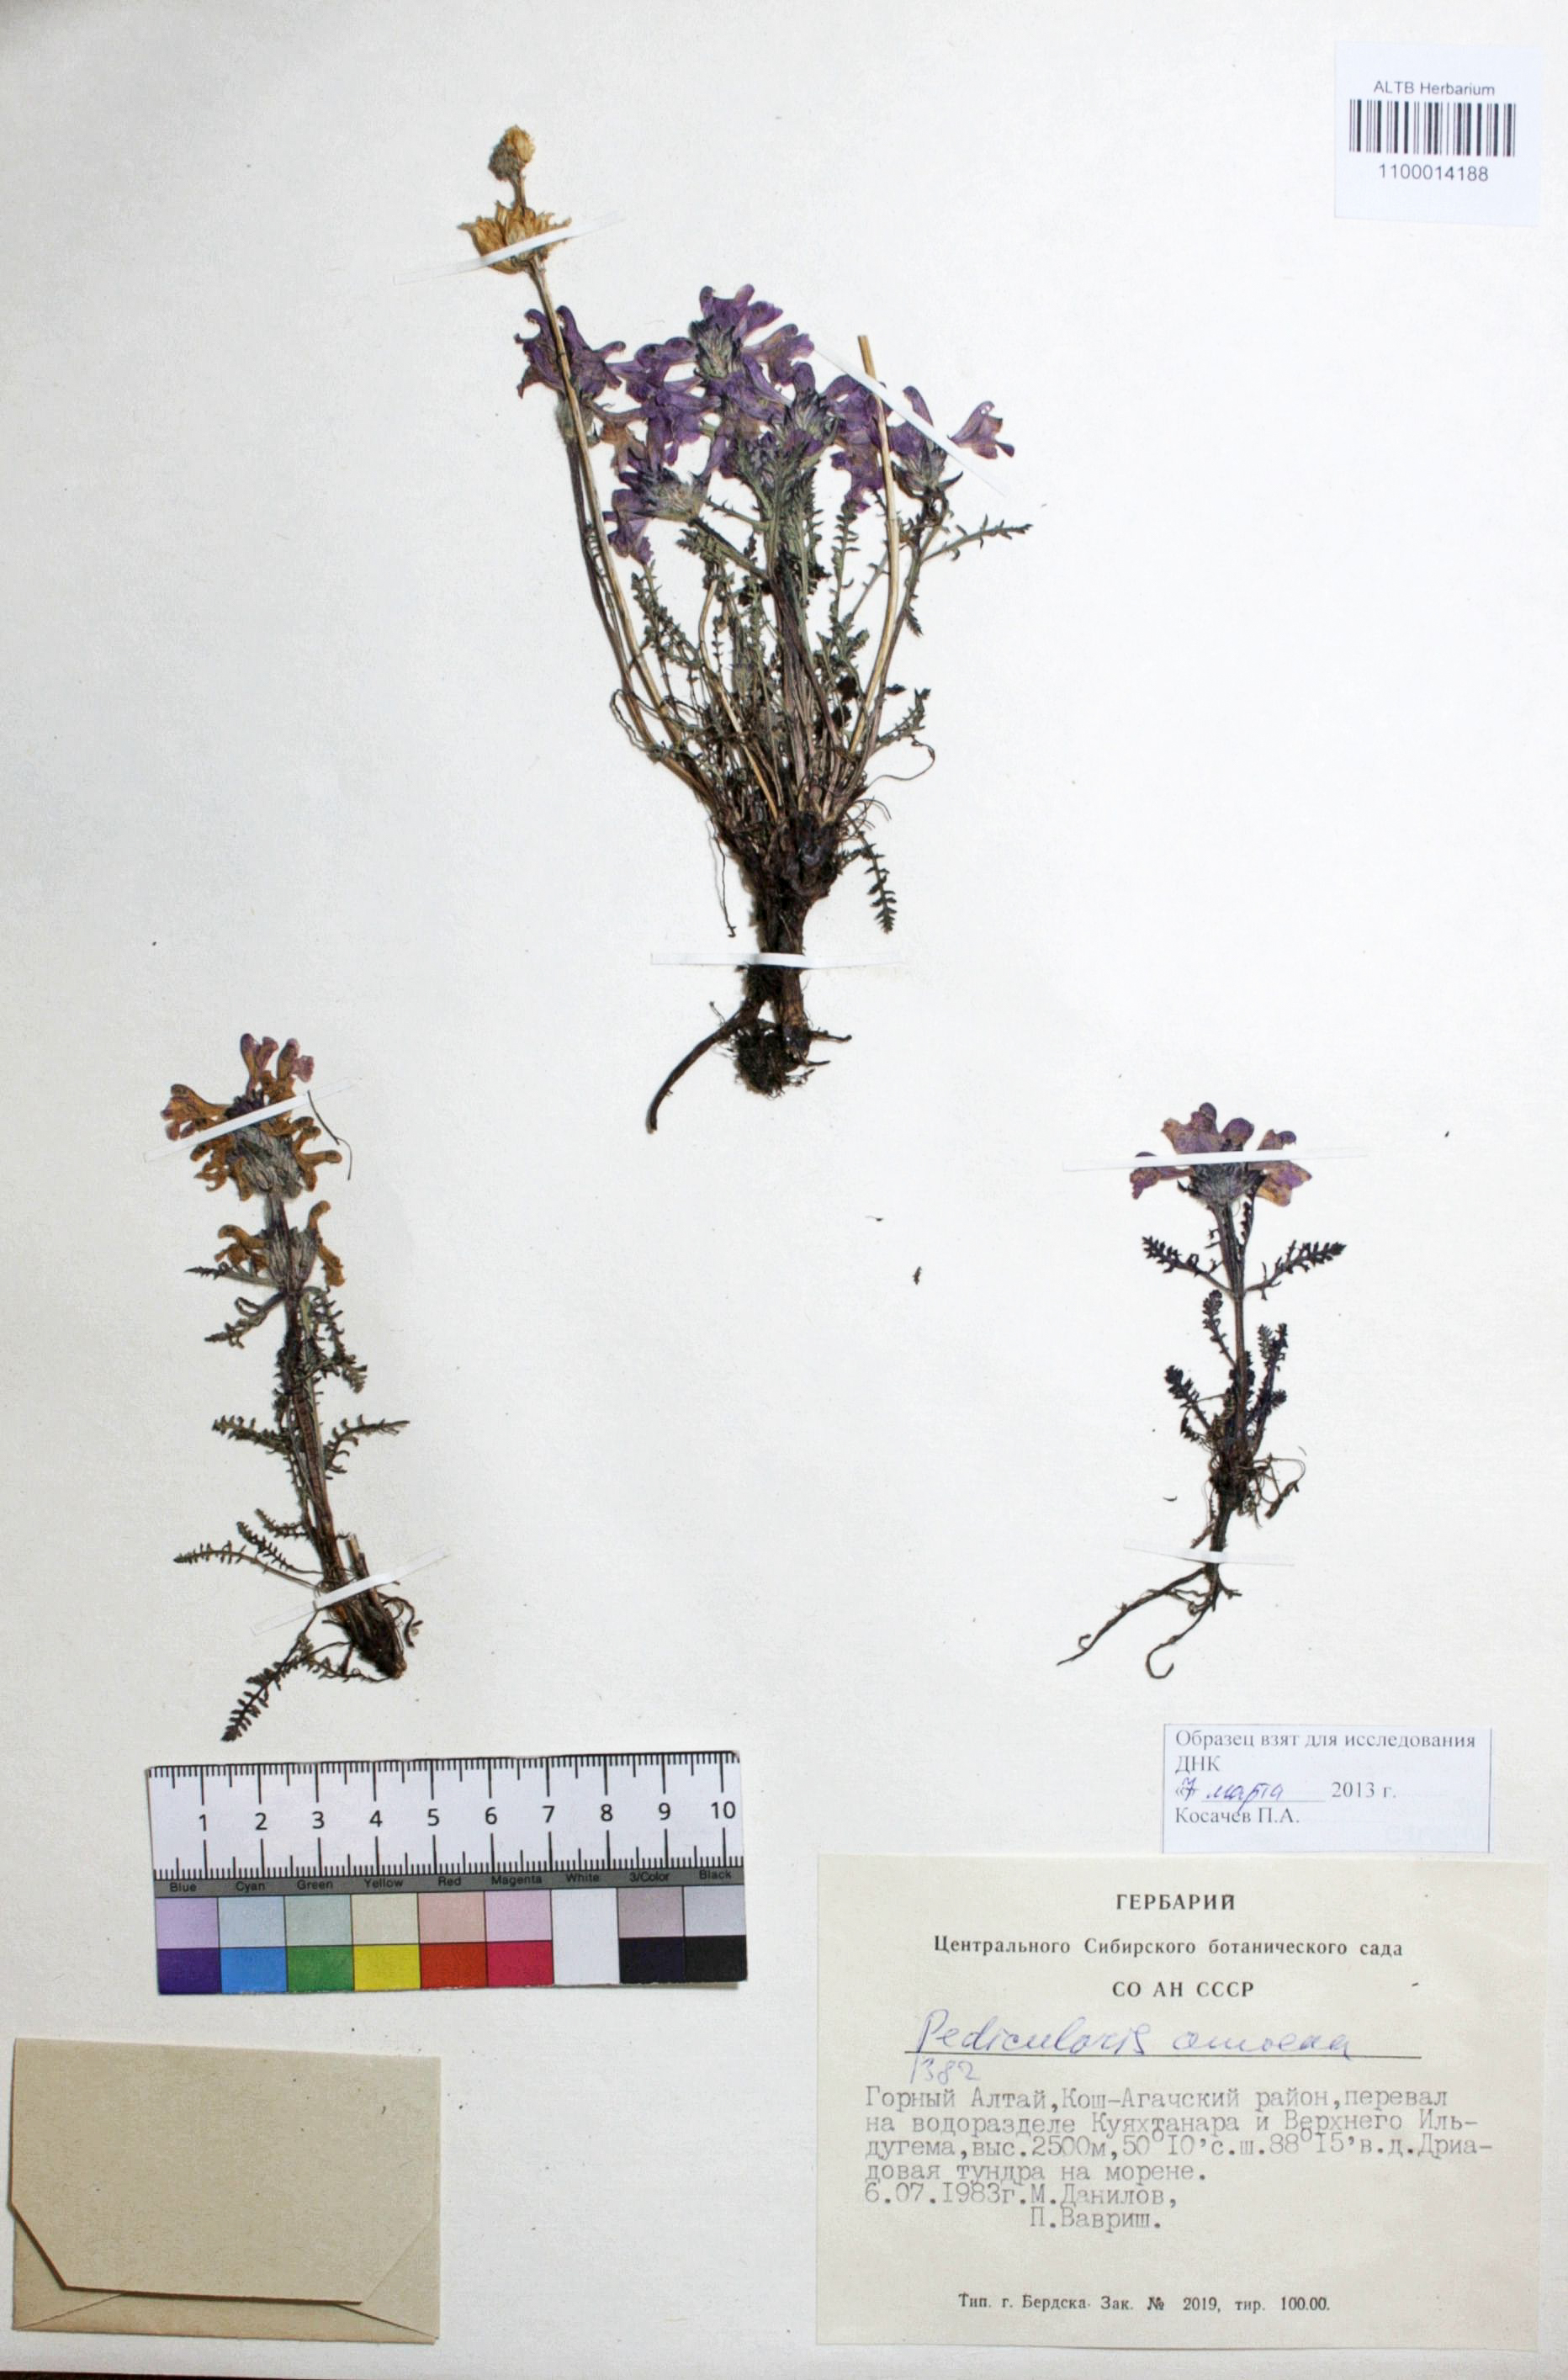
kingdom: Plantae
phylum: Tracheophyta
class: Magnoliopsida
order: Lamiales
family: Orobanchaceae
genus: Pedicularis
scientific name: Pedicularis amoena
